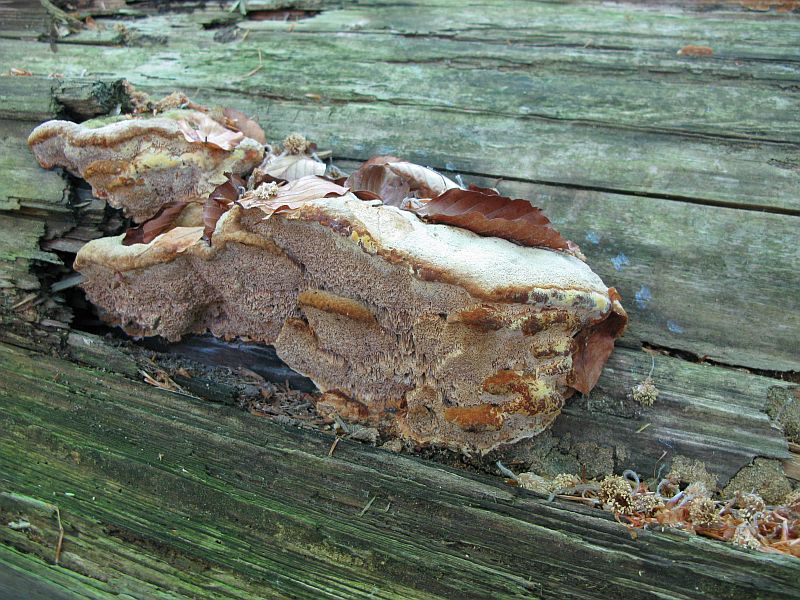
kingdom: Fungi
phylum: Basidiomycota
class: Agaricomycetes
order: Polyporales
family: Phanerochaetaceae
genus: Hapalopilus
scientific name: Hapalopilus rutilans
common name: rødlig okkerporesvamp
